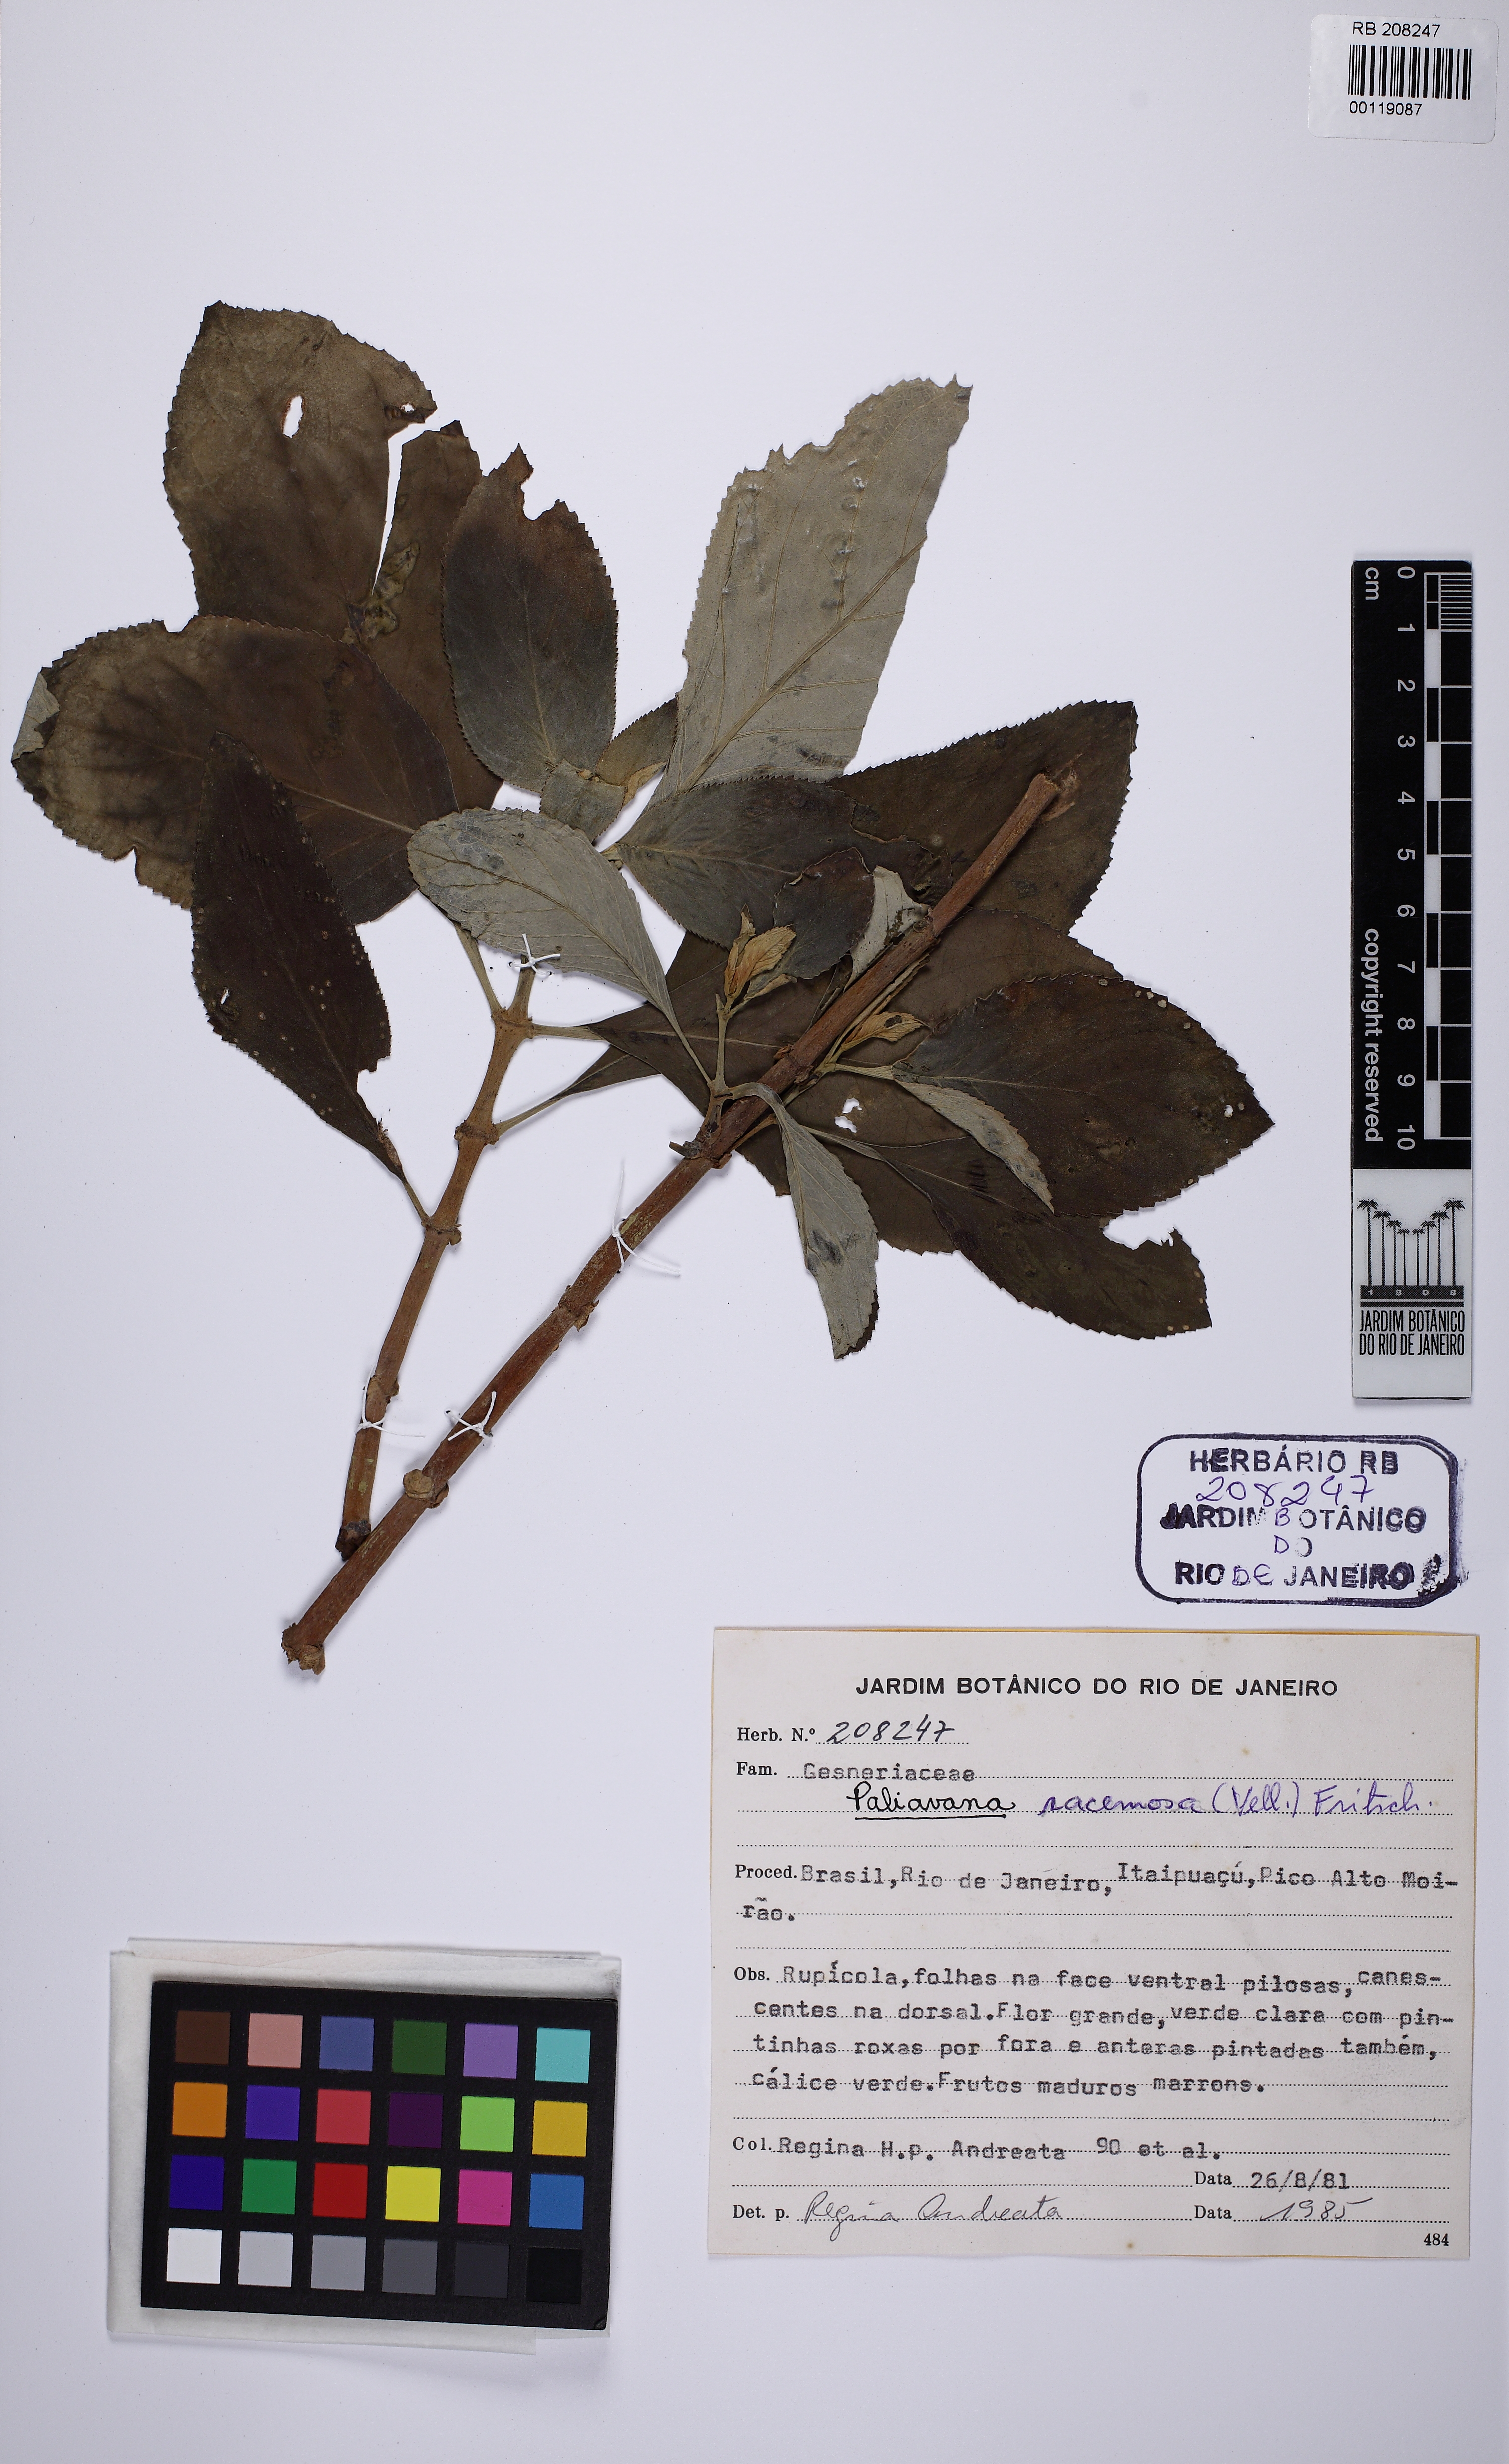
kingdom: Plantae
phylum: Tracheophyta
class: Magnoliopsida
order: Lamiales
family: Gesneriaceae
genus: Paliavana
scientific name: Paliavana prasinata
